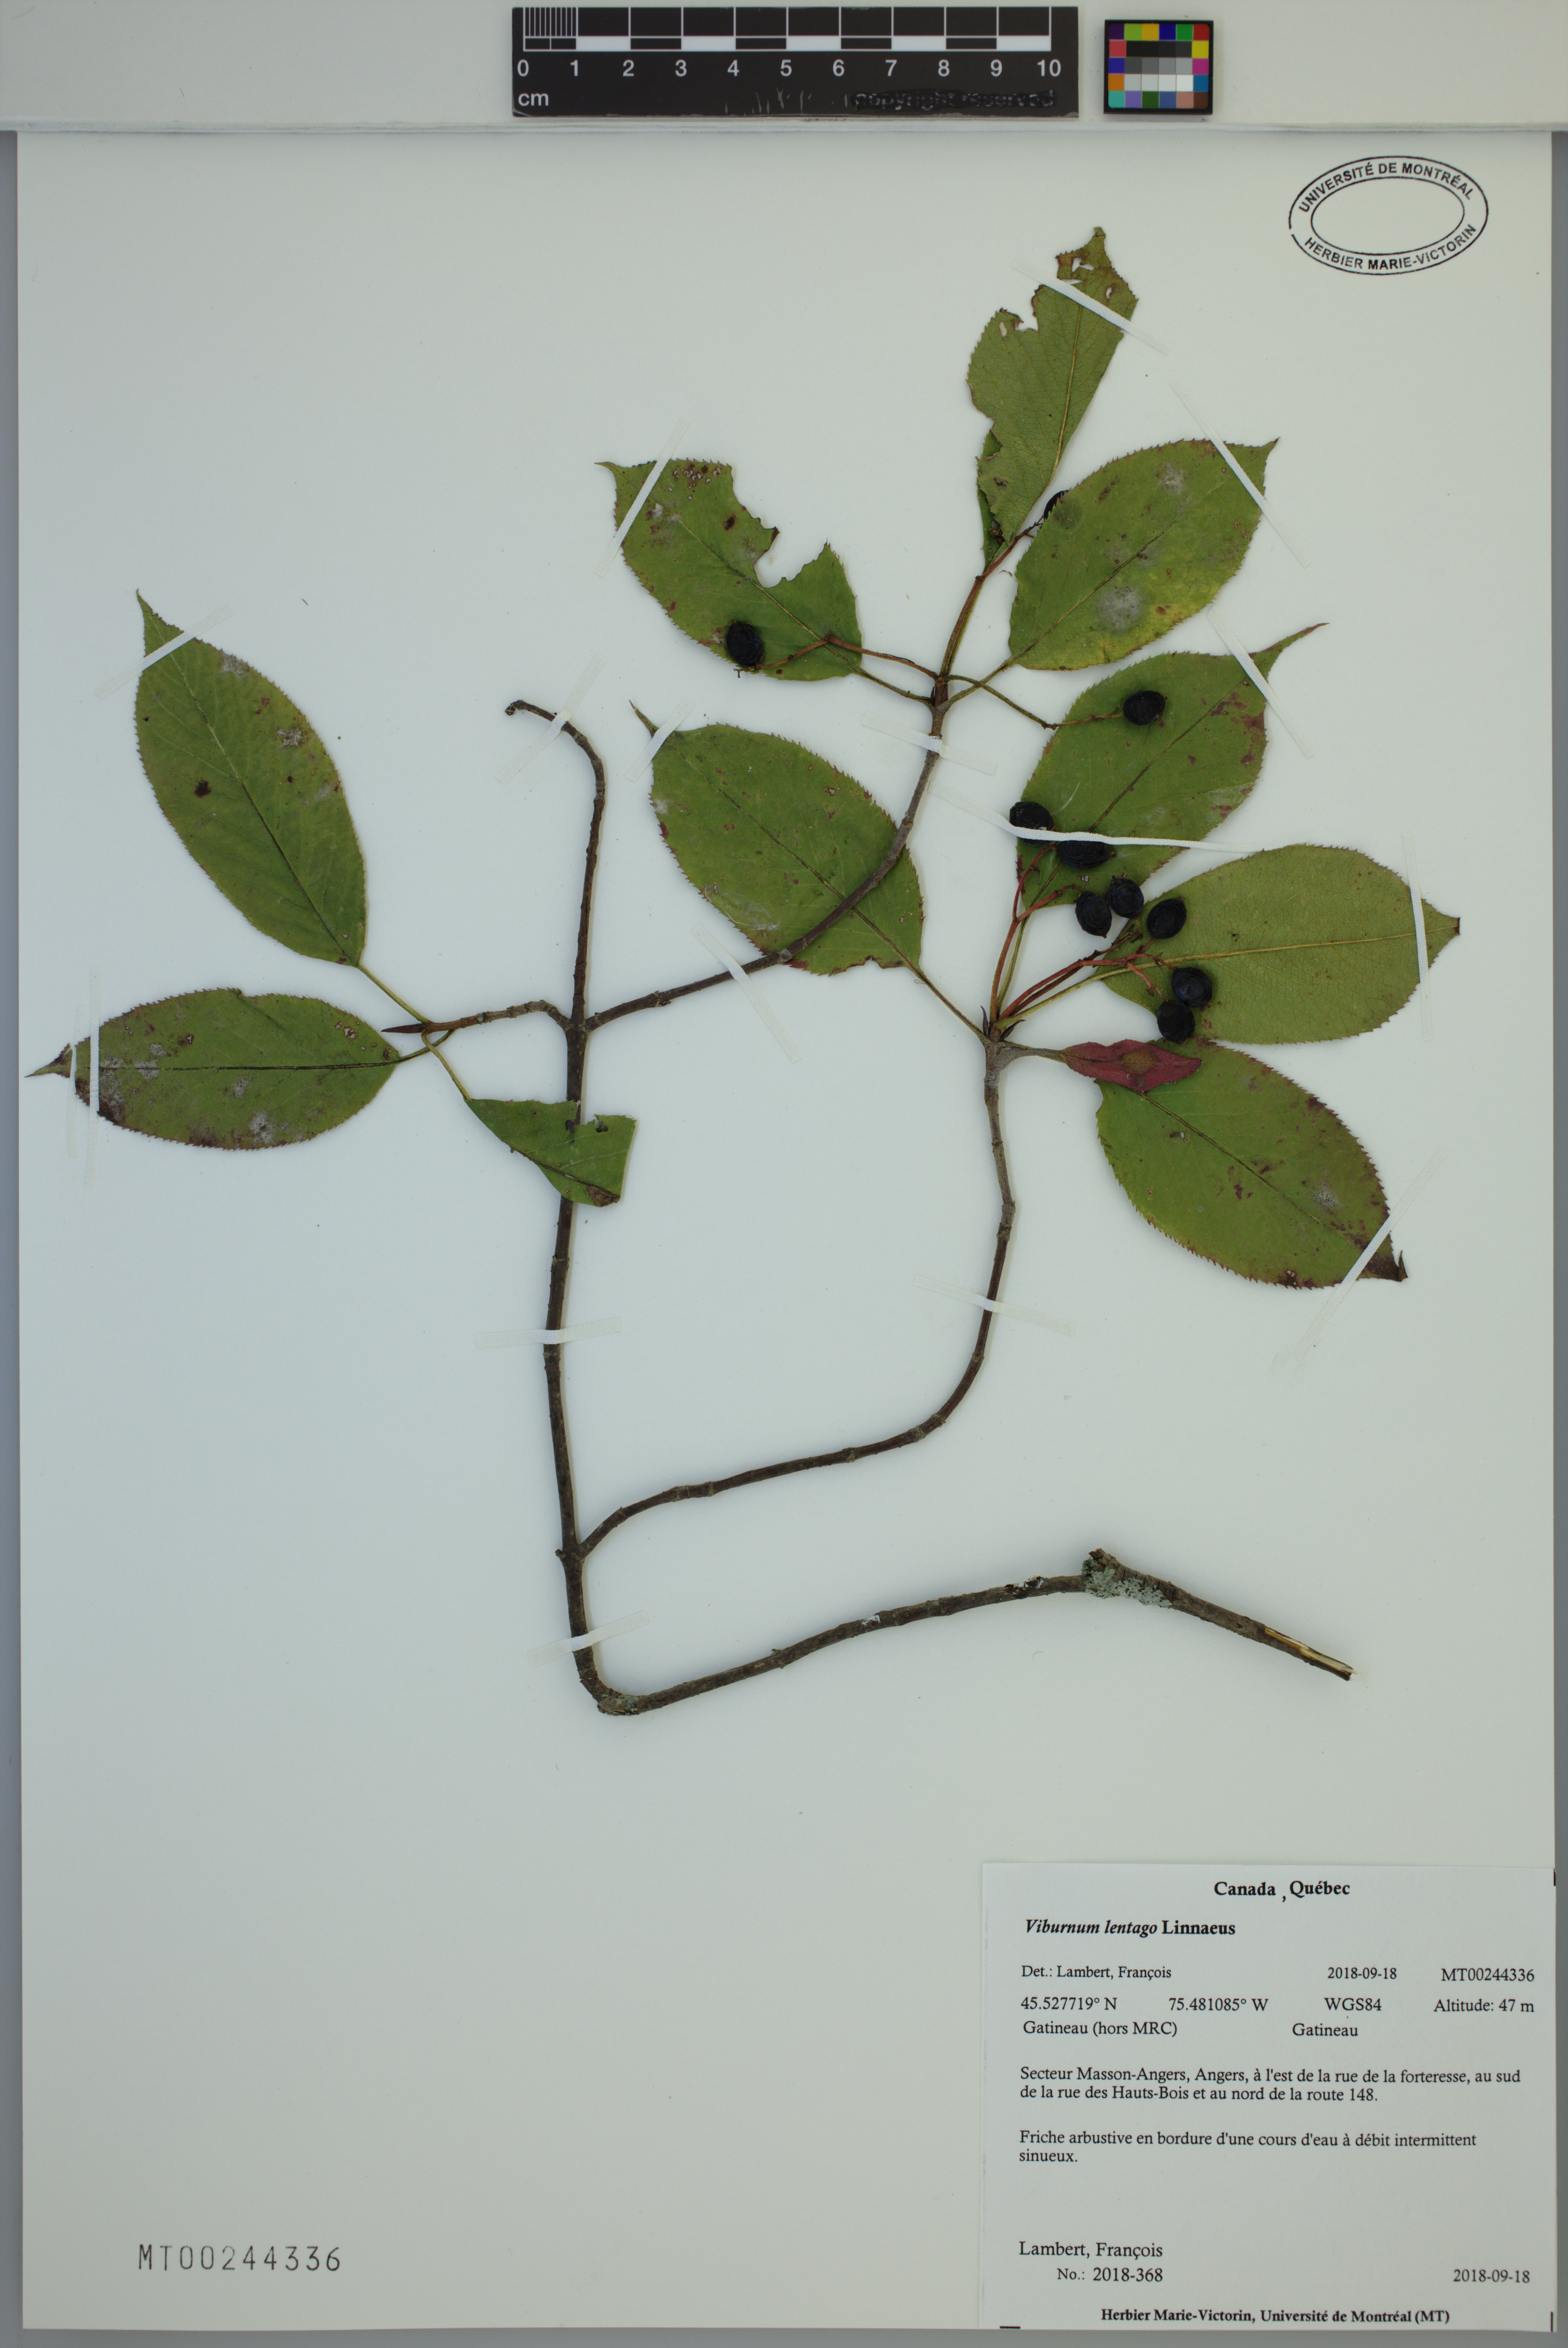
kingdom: Plantae
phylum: Tracheophyta
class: Magnoliopsida
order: Dipsacales
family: Viburnaceae
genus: Viburnum
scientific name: Viburnum lentago
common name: Black haw
